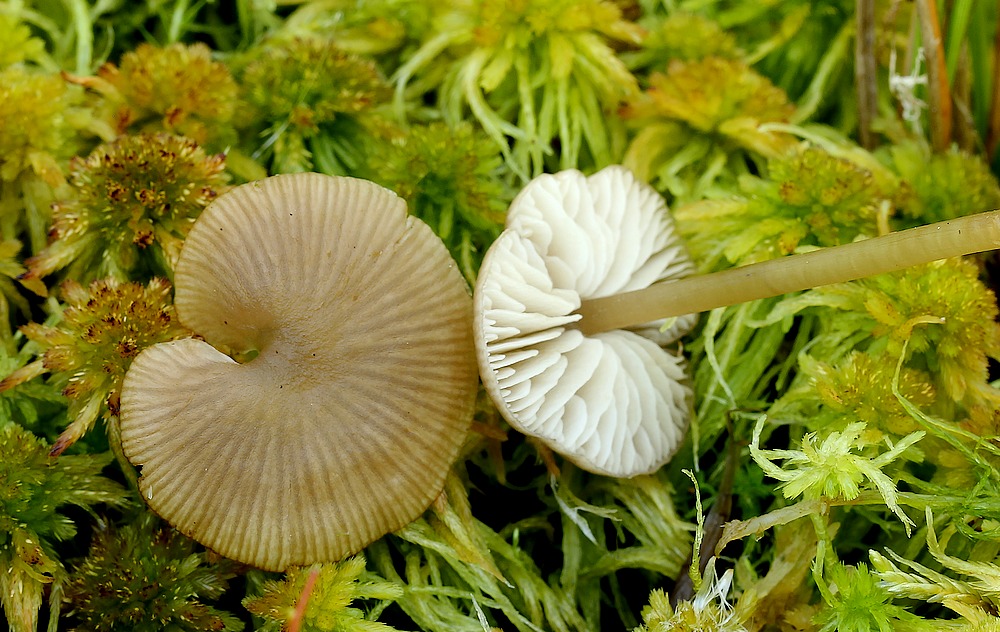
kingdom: Fungi
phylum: Basidiomycota
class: Agaricomycetes
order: Agaricales
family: Lyophyllaceae
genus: Sphagnurus
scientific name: Sphagnurus paluster
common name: tørvemos-gråblad
